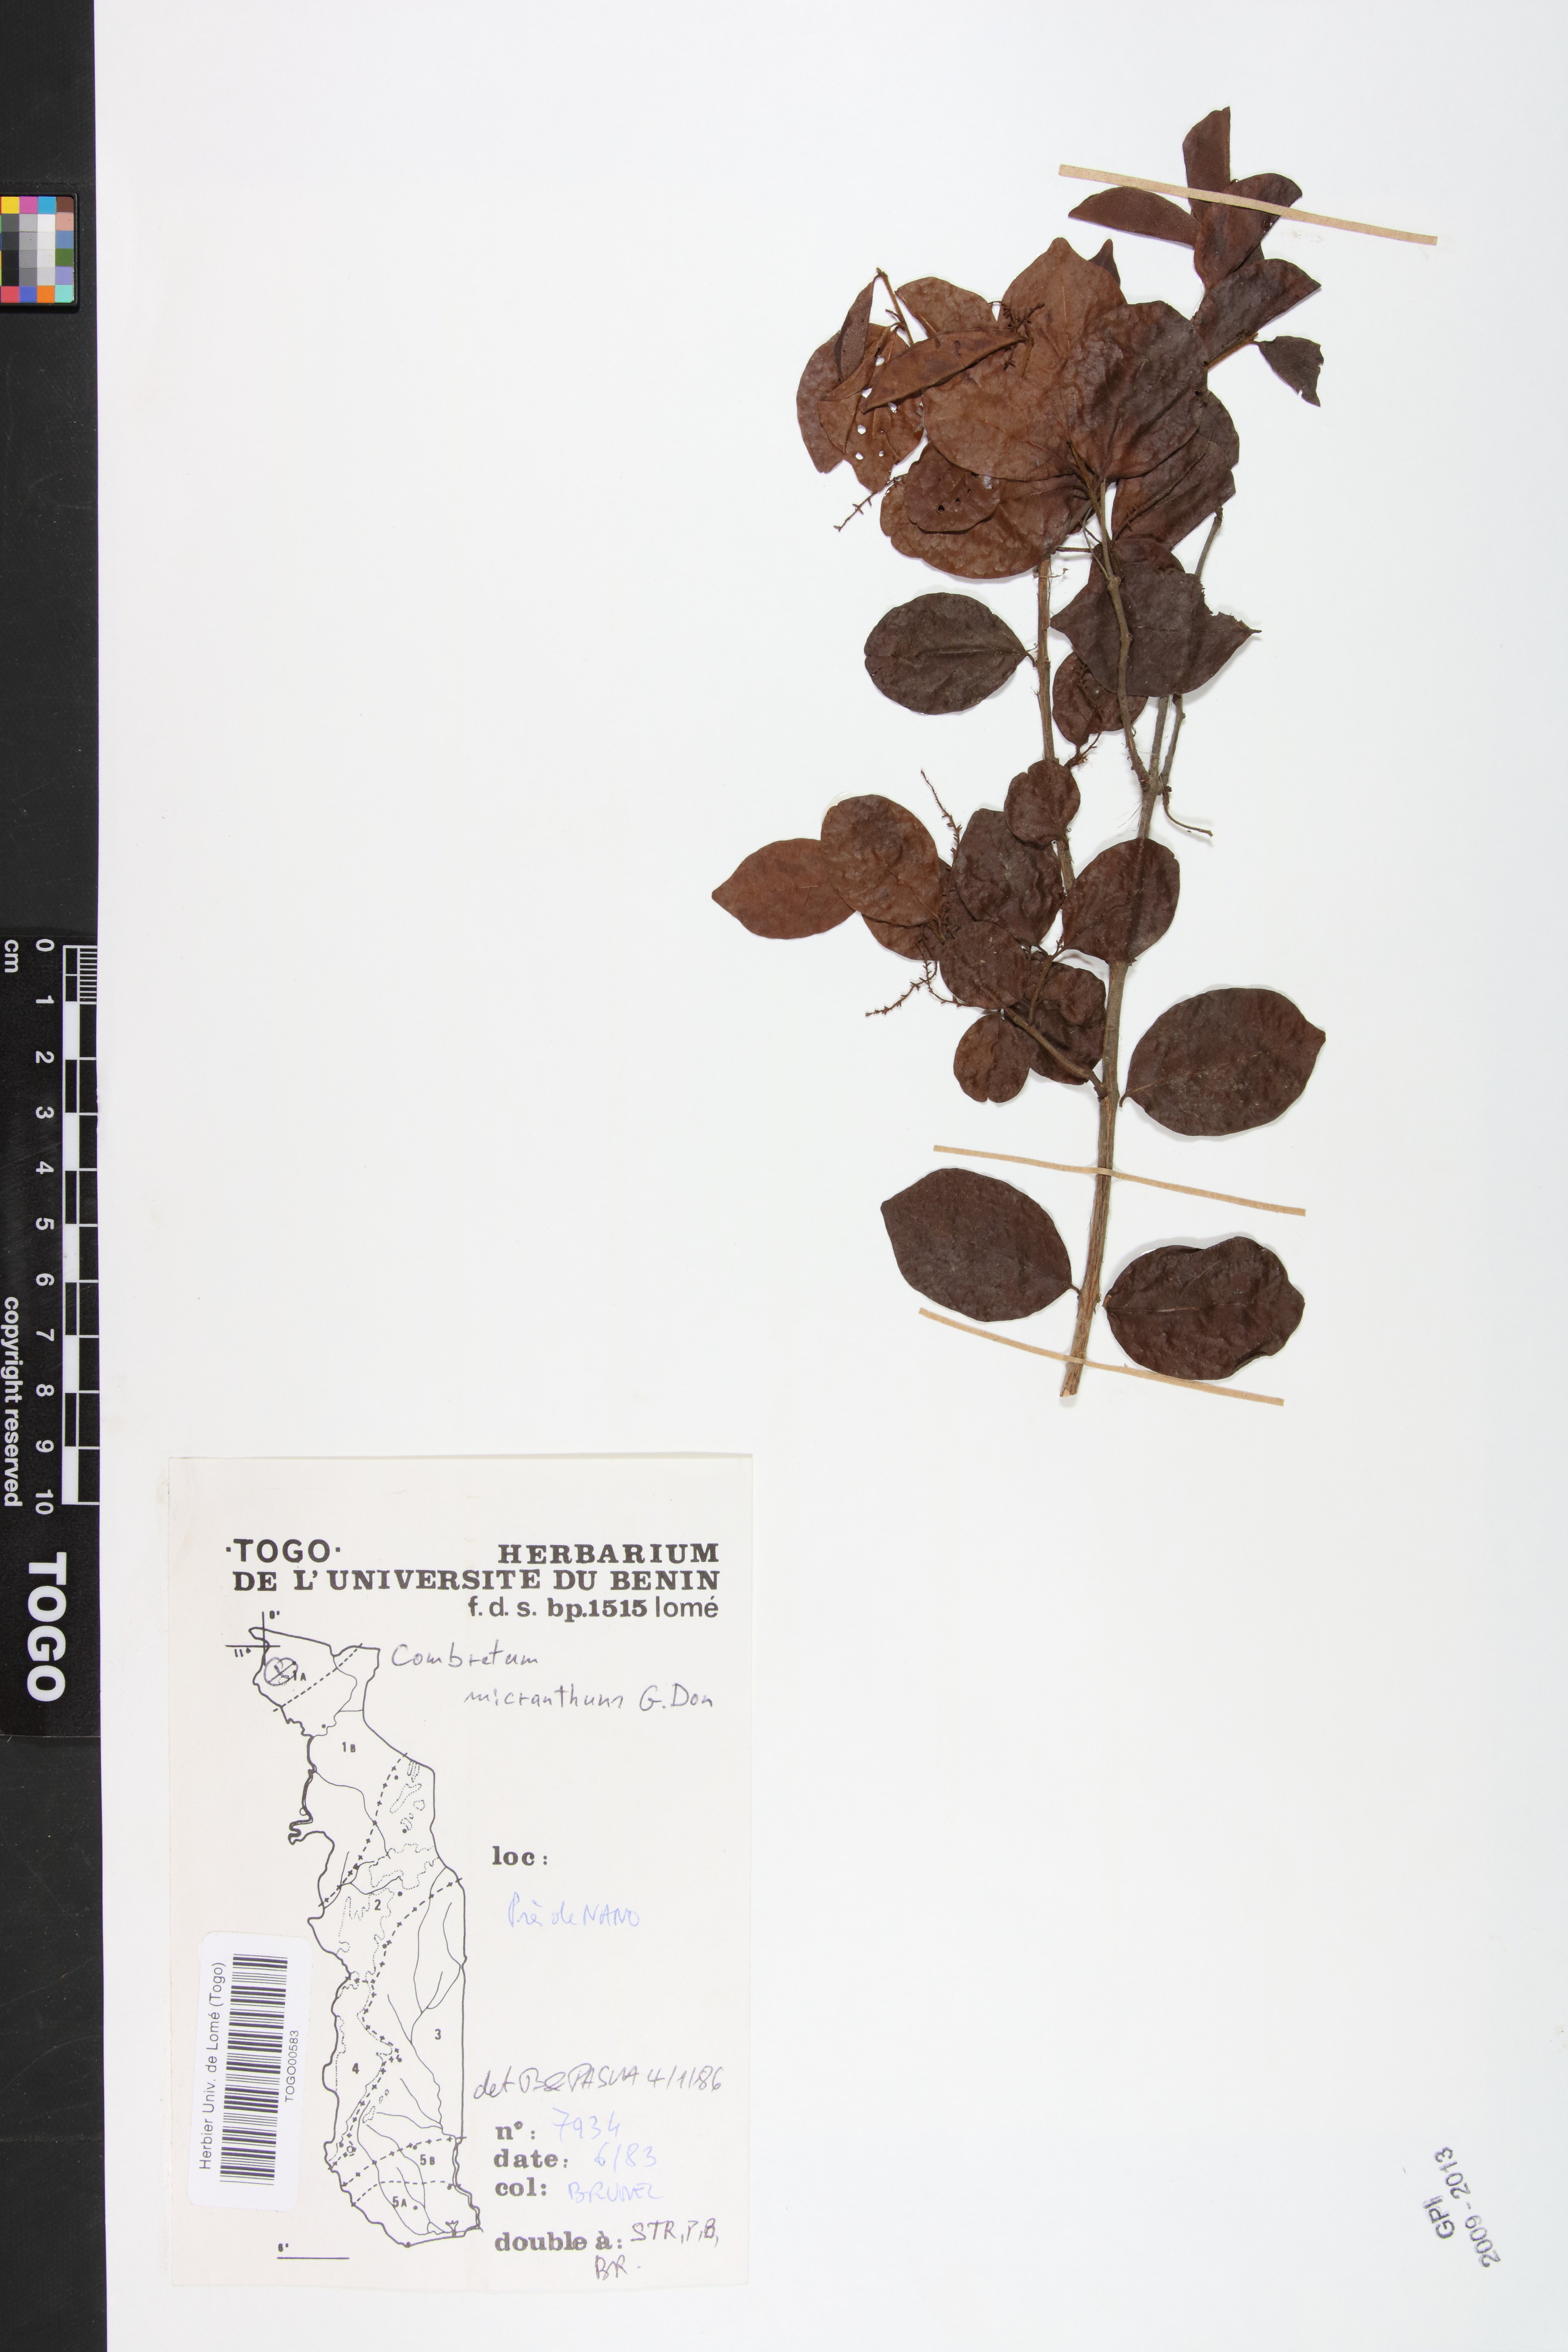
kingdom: Plantae
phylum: Tracheophyta
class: Magnoliopsida
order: Myrtales
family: Combretaceae
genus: Combretum
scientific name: Combretum micranthum
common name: Opium-antidote
